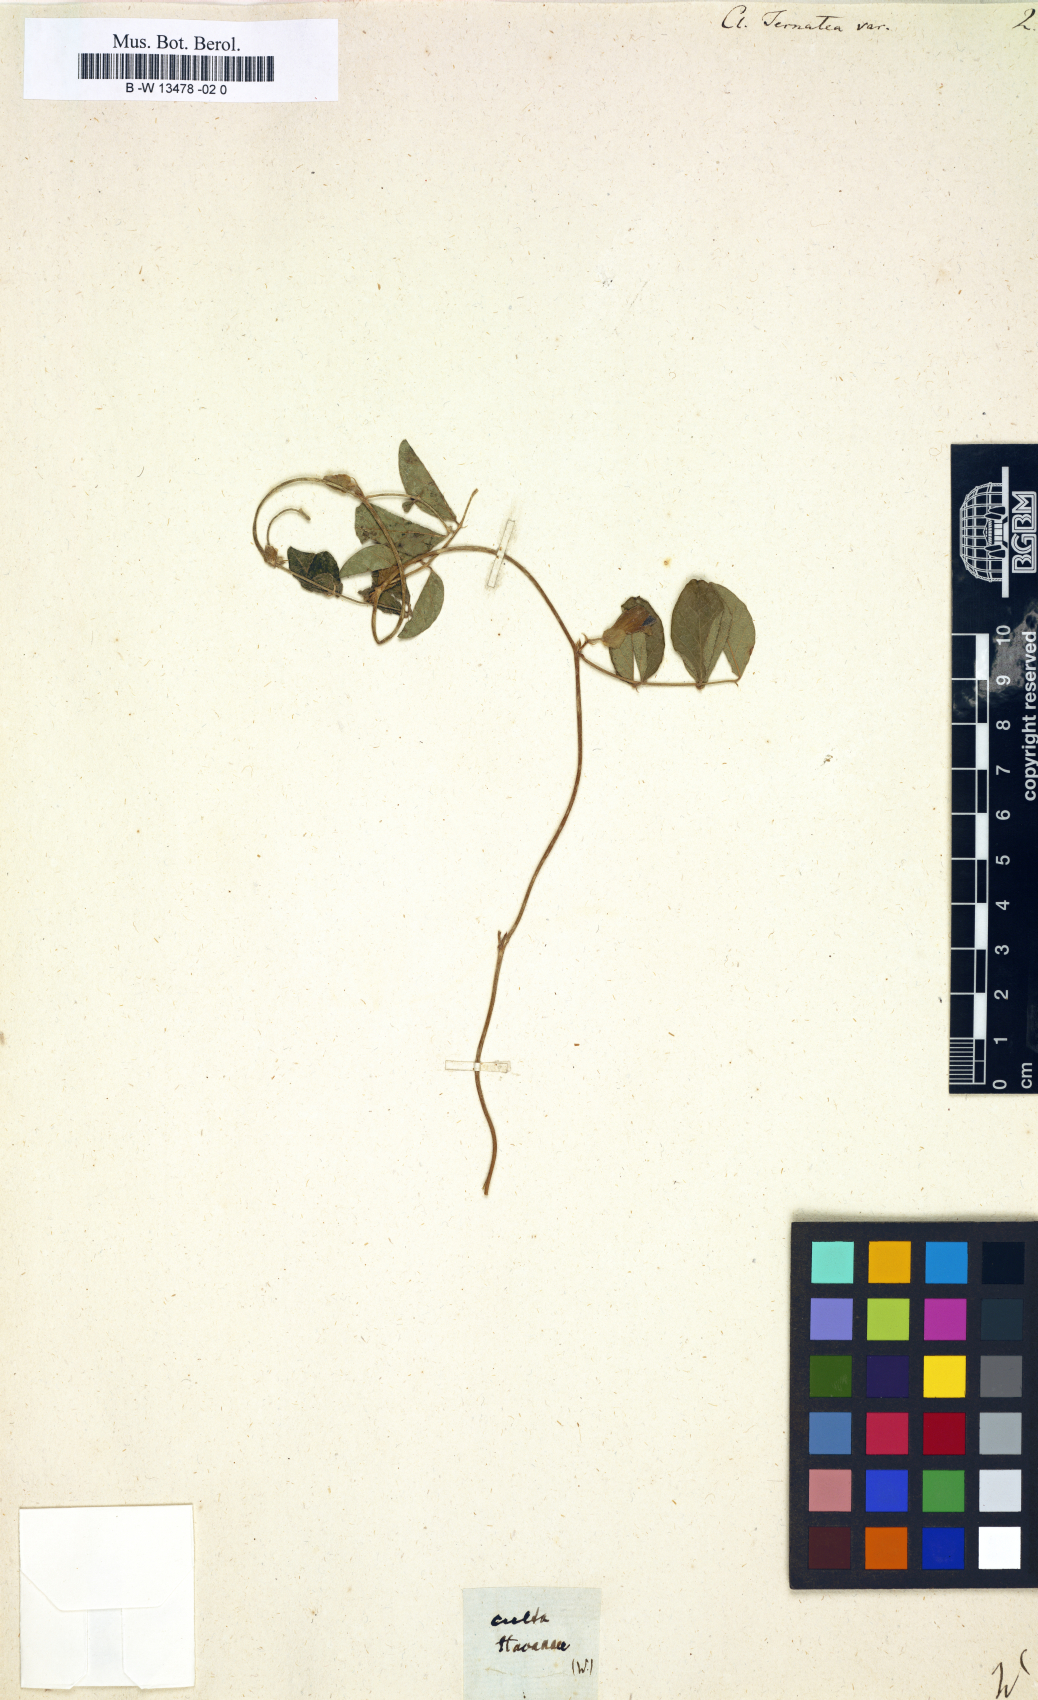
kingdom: Plantae
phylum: Tracheophyta
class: Magnoliopsida
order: Fabales
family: Fabaceae
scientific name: Fabaceae
